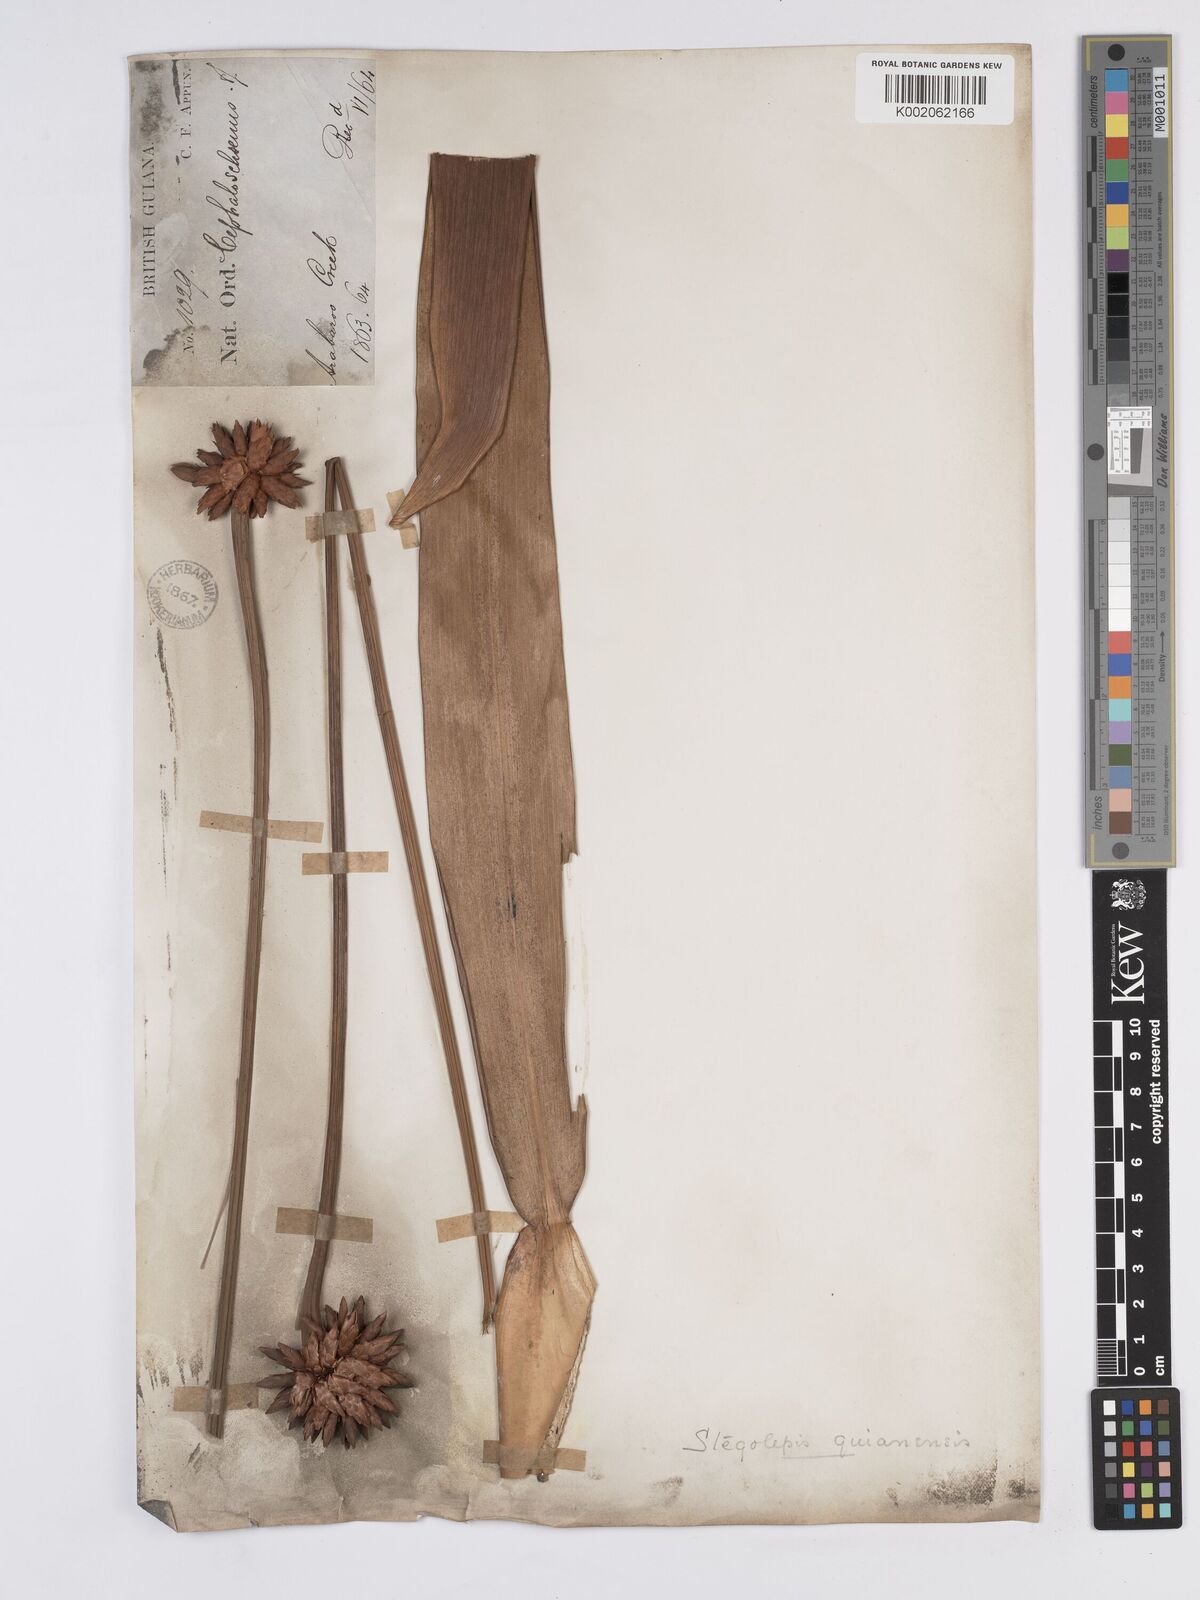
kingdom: Plantae
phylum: Tracheophyta
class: Liliopsida
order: Poales
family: Rapateaceae
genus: Stegolepis
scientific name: Stegolepis guianensis
